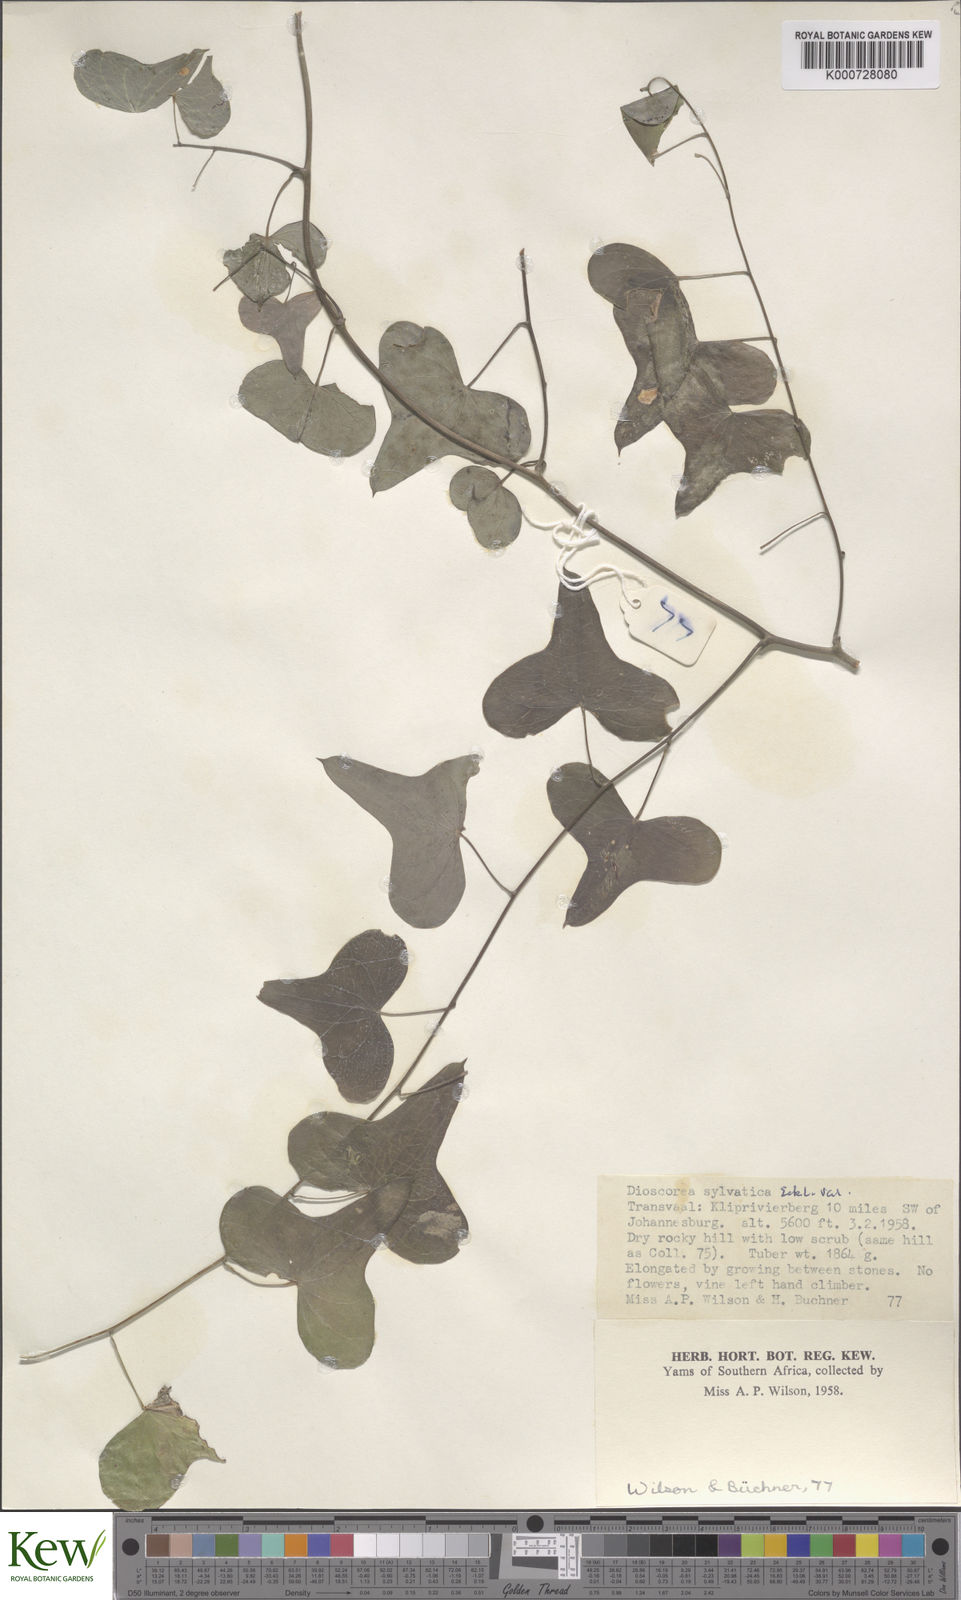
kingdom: Plantae
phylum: Tracheophyta
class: Liliopsida
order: Dioscoreales
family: Dioscoreaceae
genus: Dioscorea
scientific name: Dioscorea sylvatica
